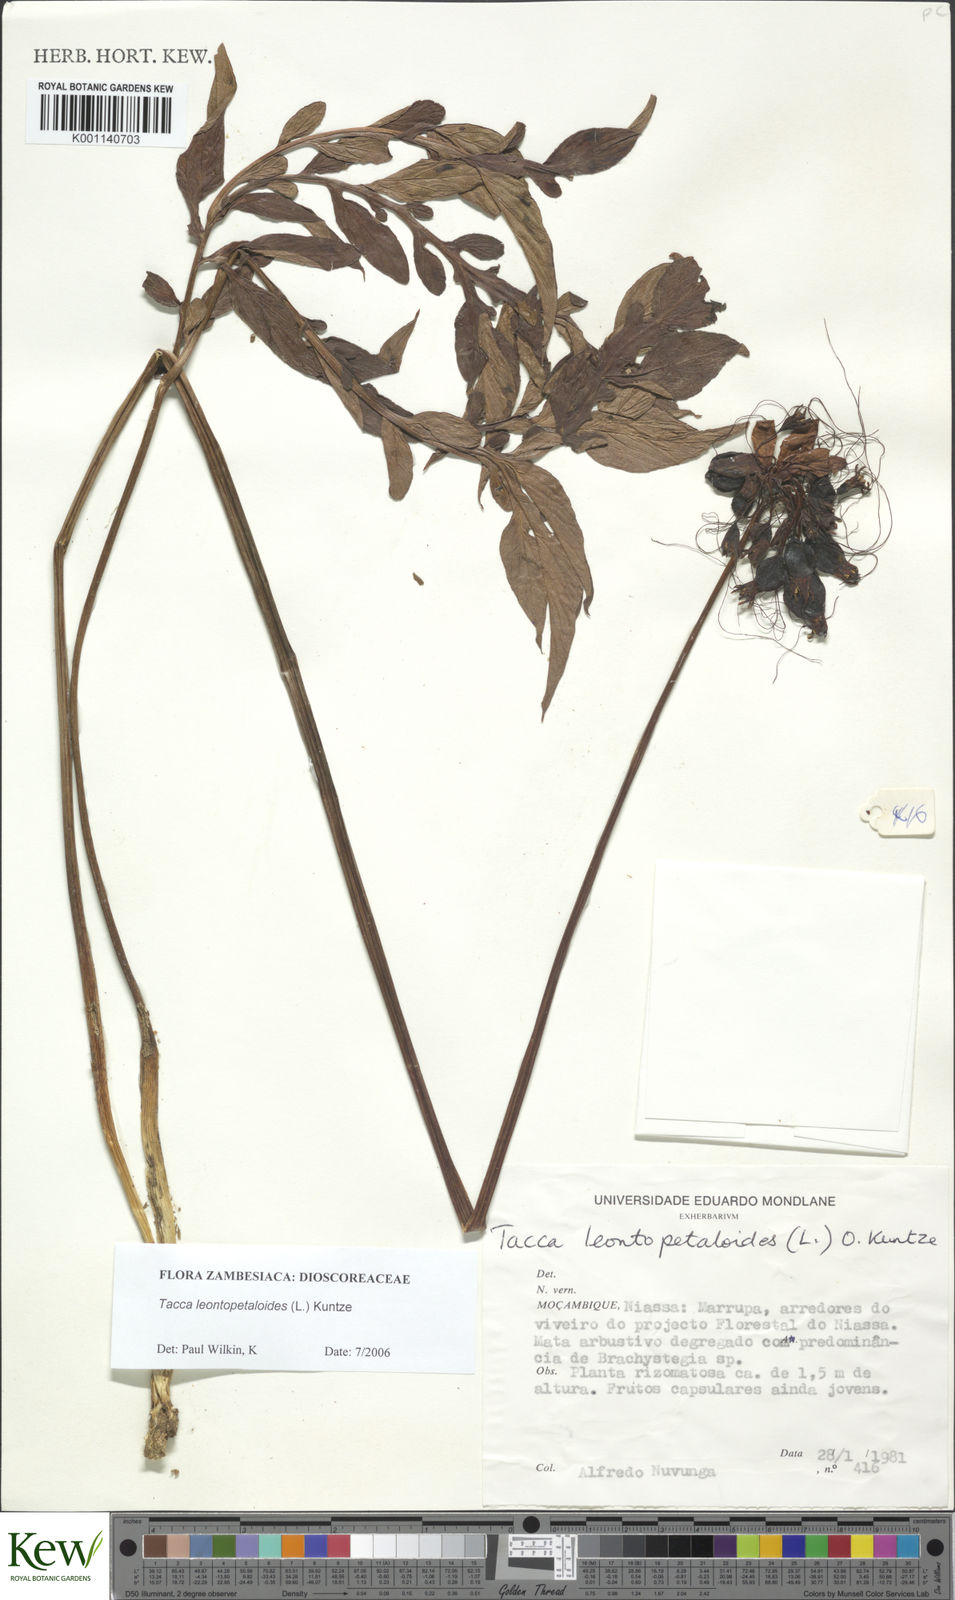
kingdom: Plantae
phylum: Tracheophyta
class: Liliopsida
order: Dioscoreales
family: Dioscoreaceae
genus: Tacca
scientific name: Tacca leontopetaloides
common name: Arrowroot
